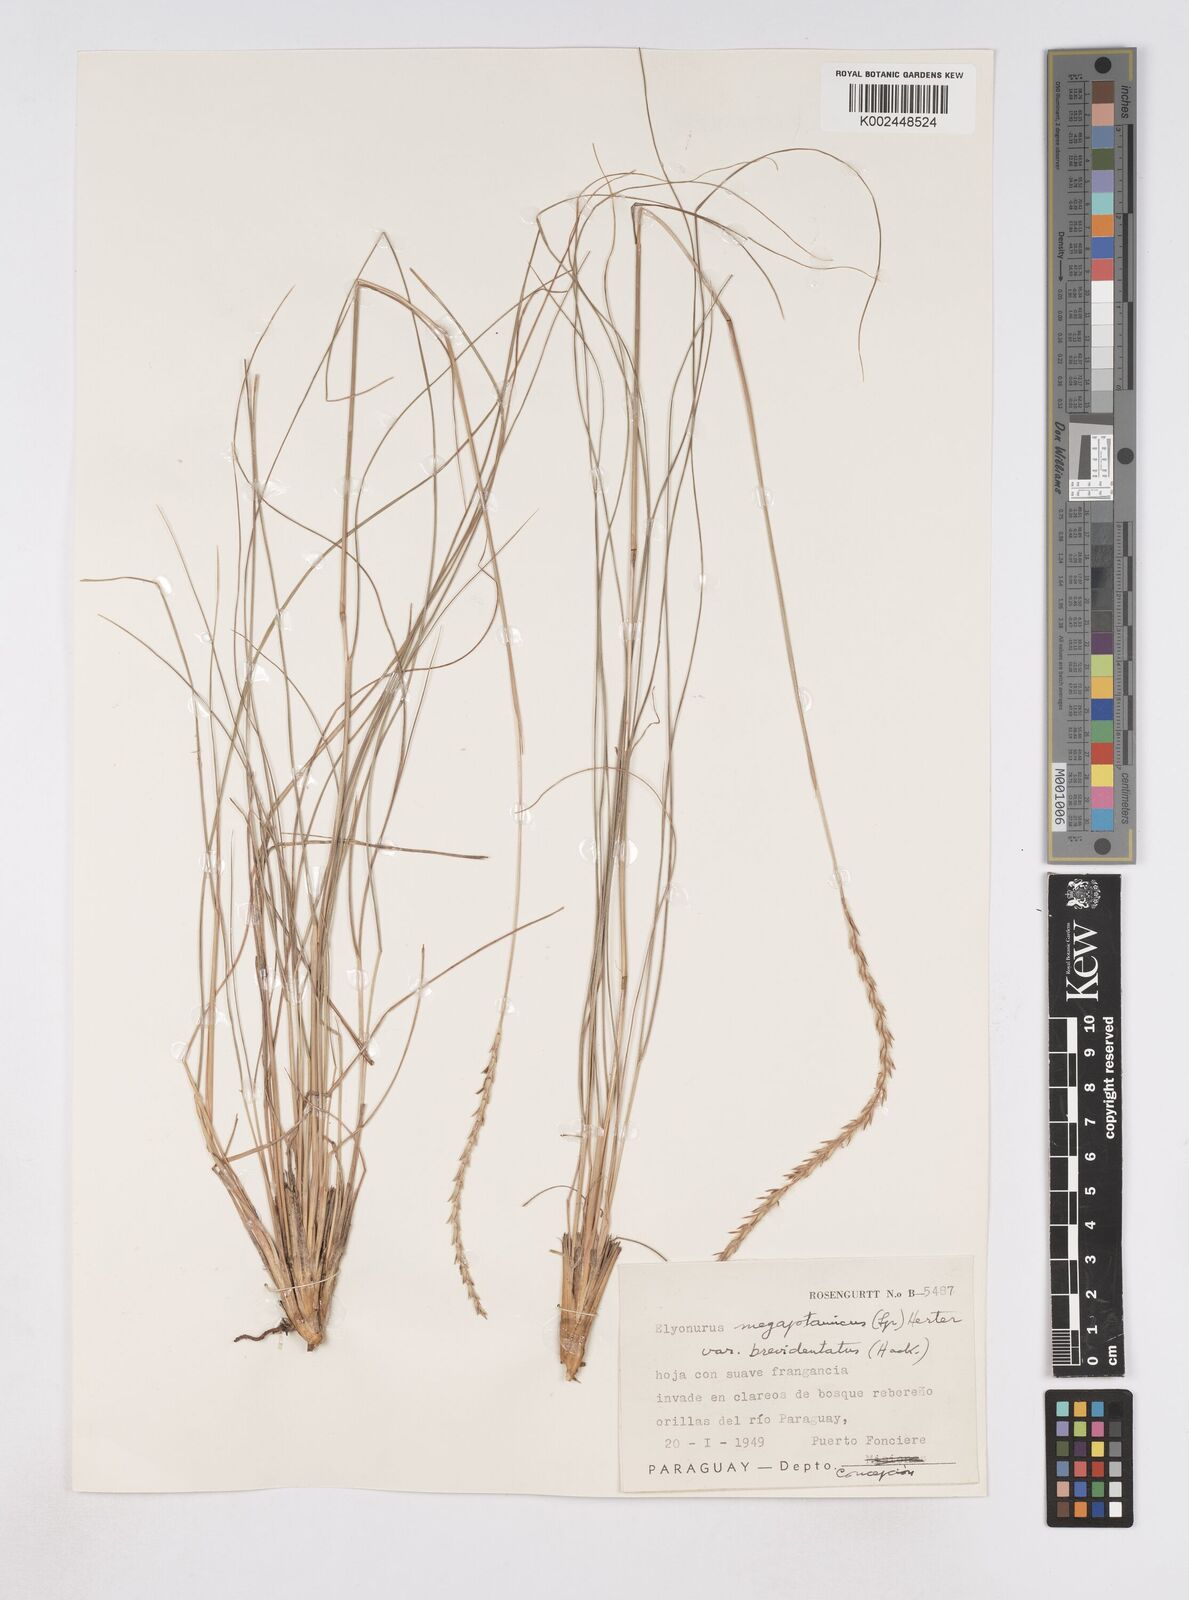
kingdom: Plantae
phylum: Tracheophyta
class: Liliopsida
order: Poales
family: Poaceae
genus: Elionurus
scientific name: Elionurus muticus
